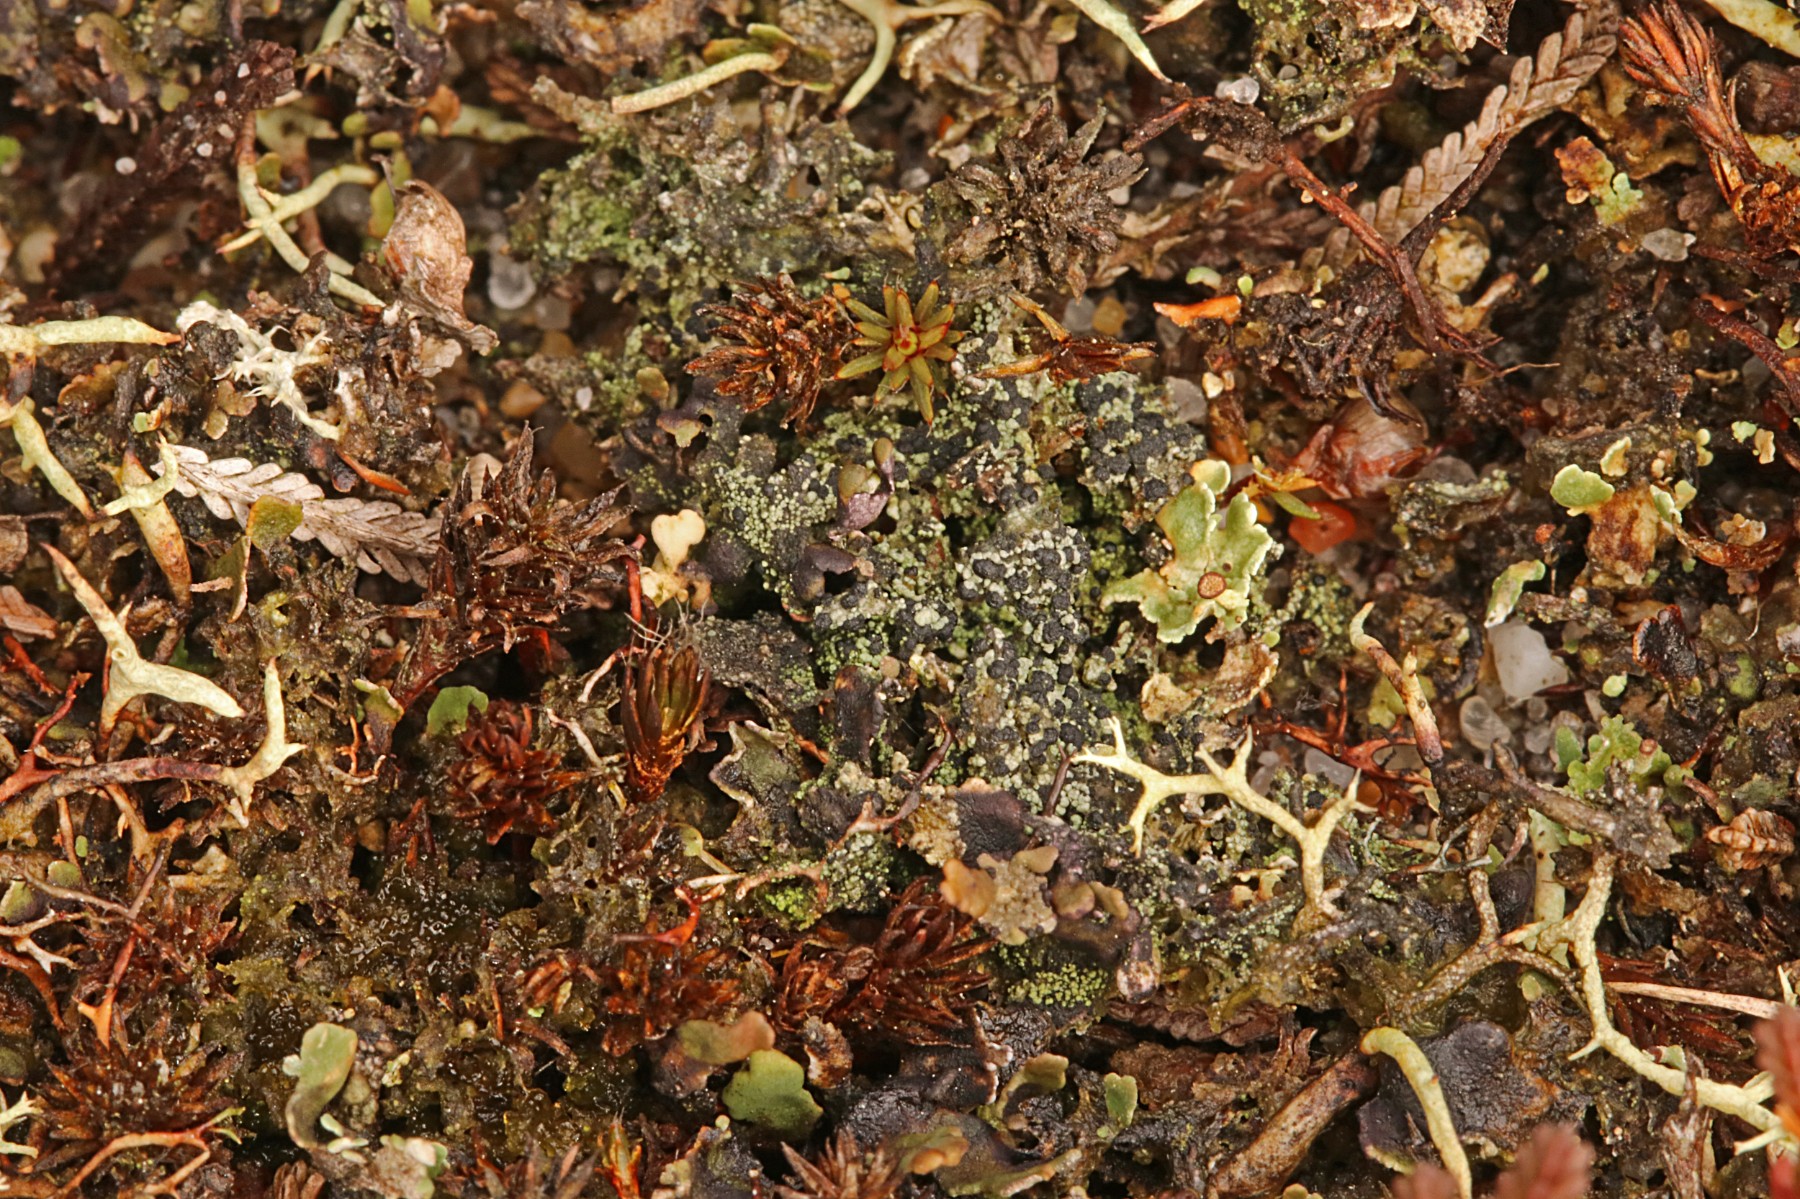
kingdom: Fungi
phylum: Ascomycota
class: Lecanoromycetes
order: Lecanorales
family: Byssolomataceae
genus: Micarea
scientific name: Micarea lignaria
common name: tørve-knaplav
